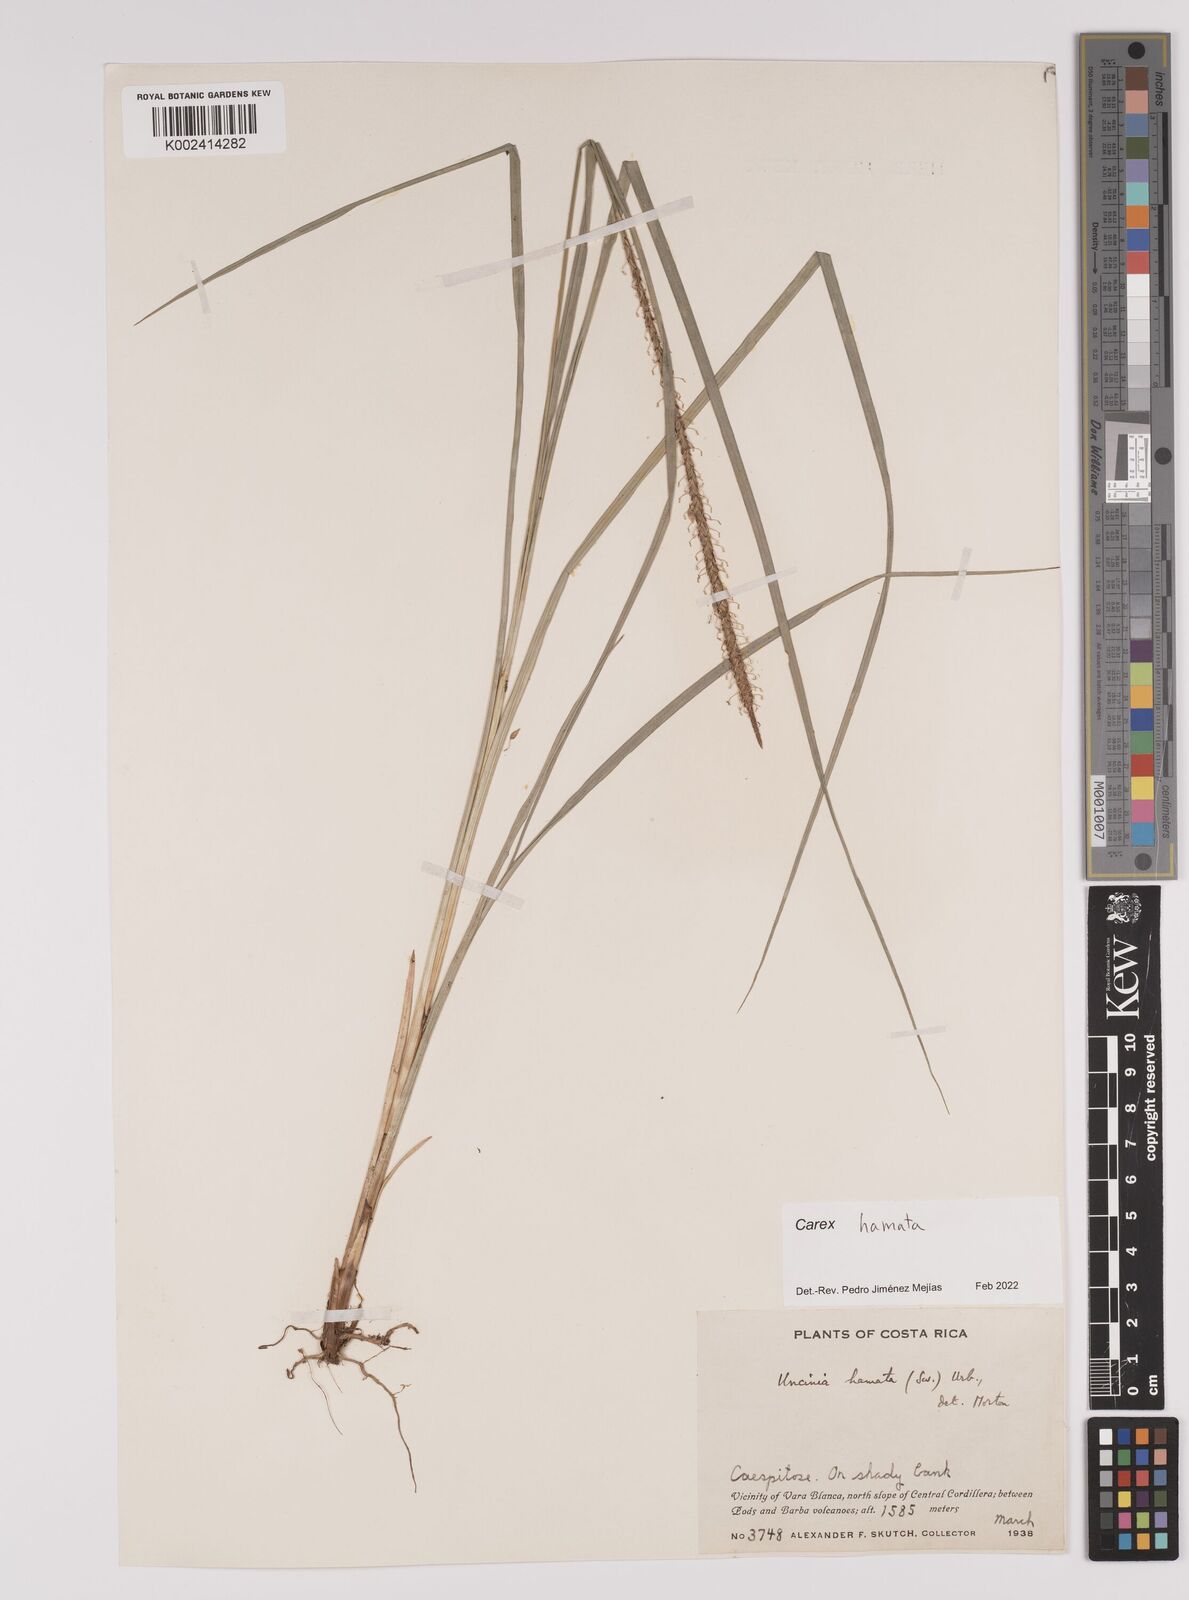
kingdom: Plantae
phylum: Tracheophyta
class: Liliopsida
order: Poales
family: Cyperaceae
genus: Carex
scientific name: Carex hamata
